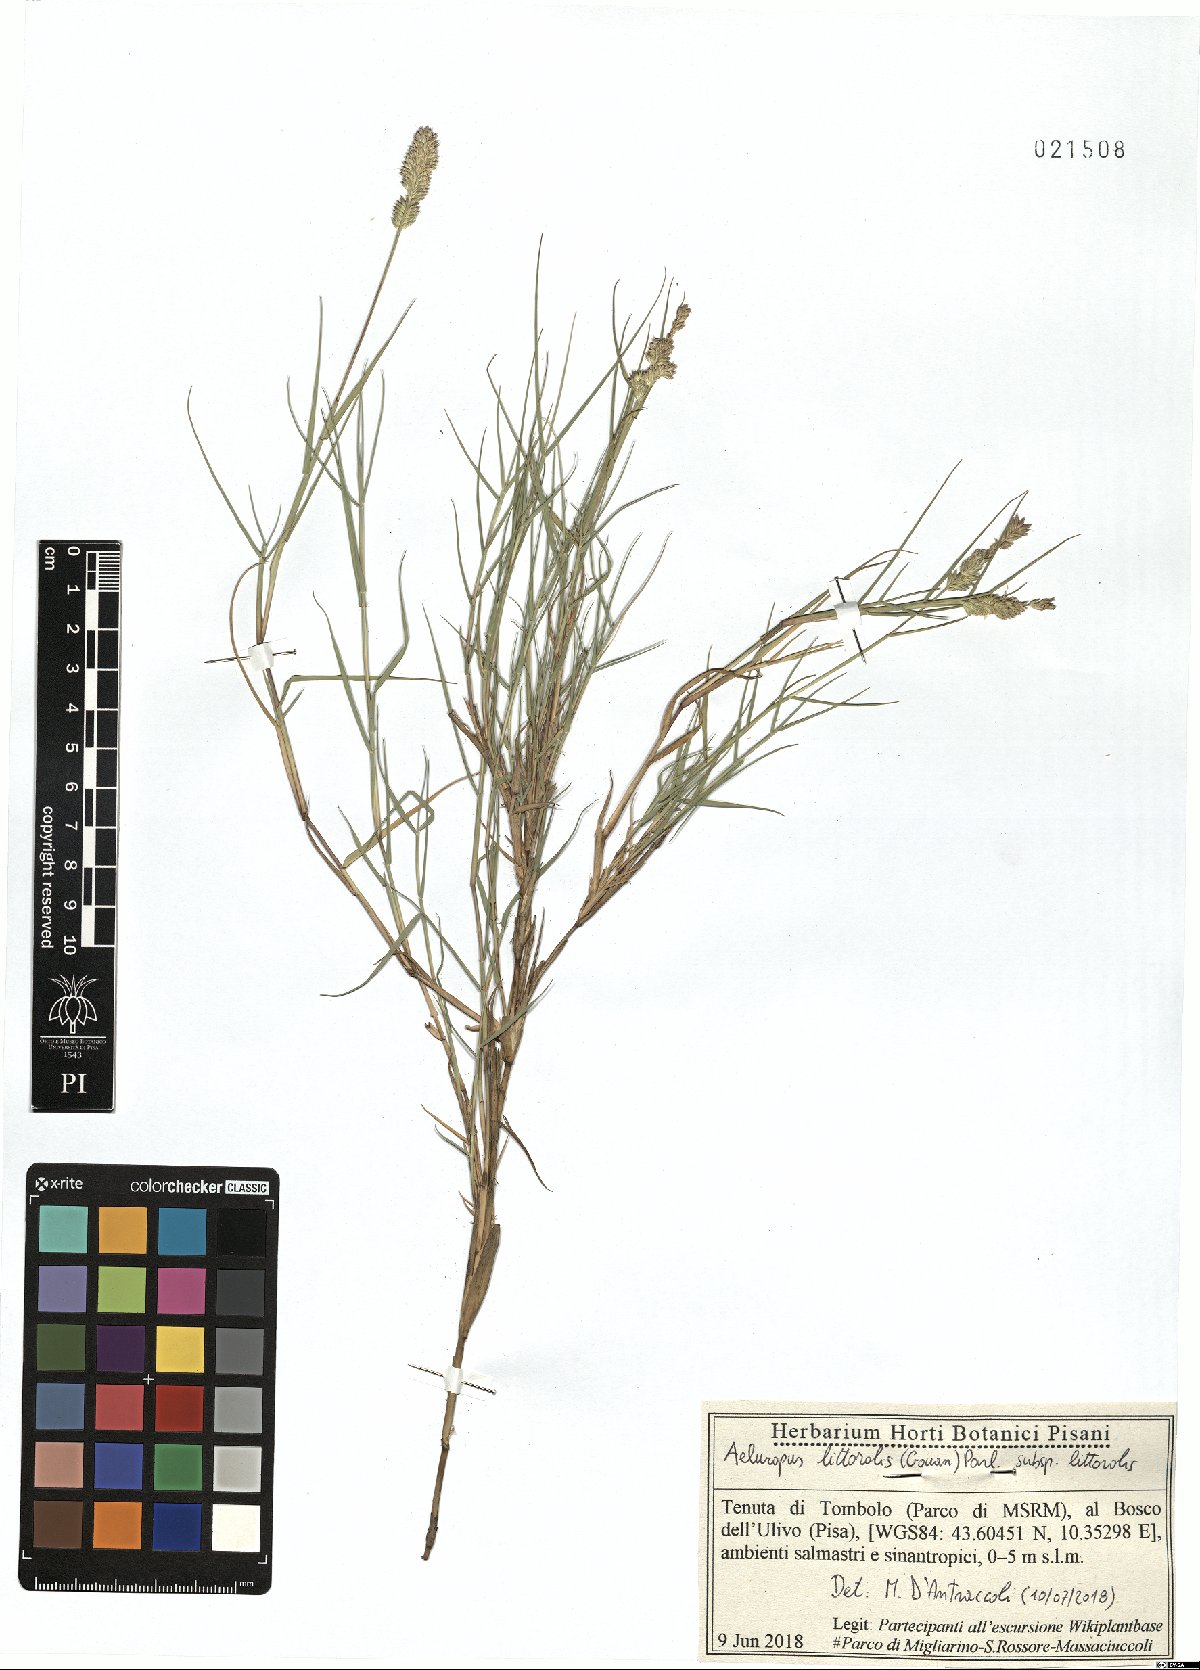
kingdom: Plantae
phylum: Tracheophyta
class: Liliopsida
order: Poales
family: Poaceae
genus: Aeluropus
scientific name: Aeluropus littoralis
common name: Indian walnut
